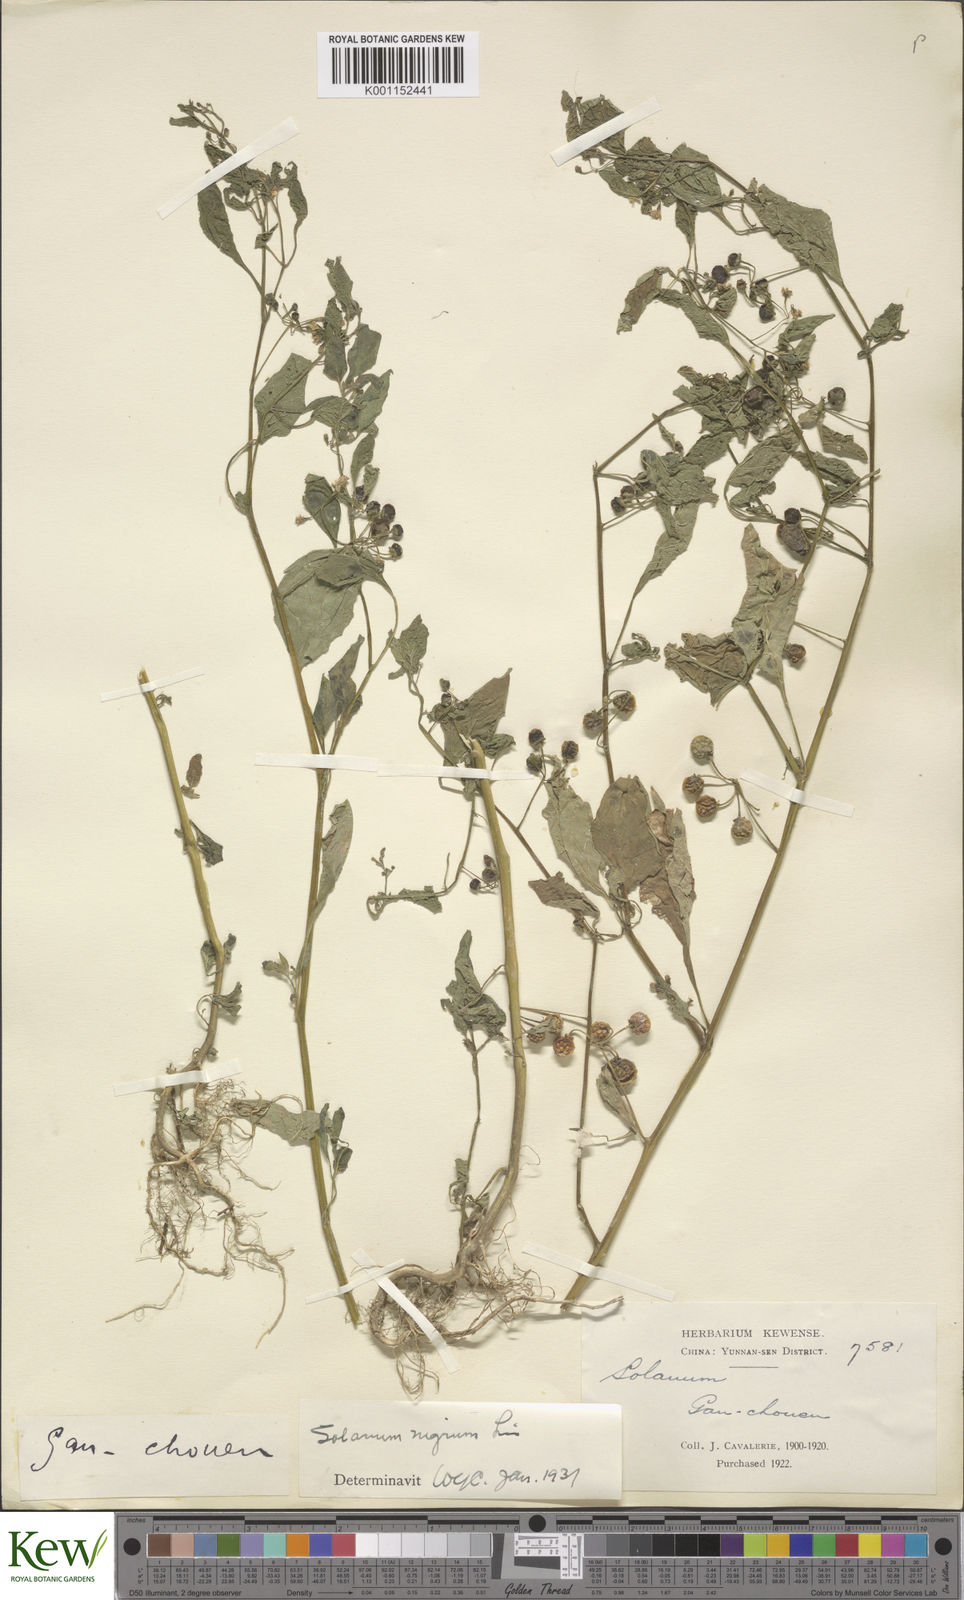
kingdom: Plantae
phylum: Tracheophyta
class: Magnoliopsida
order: Solanales
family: Solanaceae
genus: Solanum
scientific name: Solanum americanum
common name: American black nightshade
